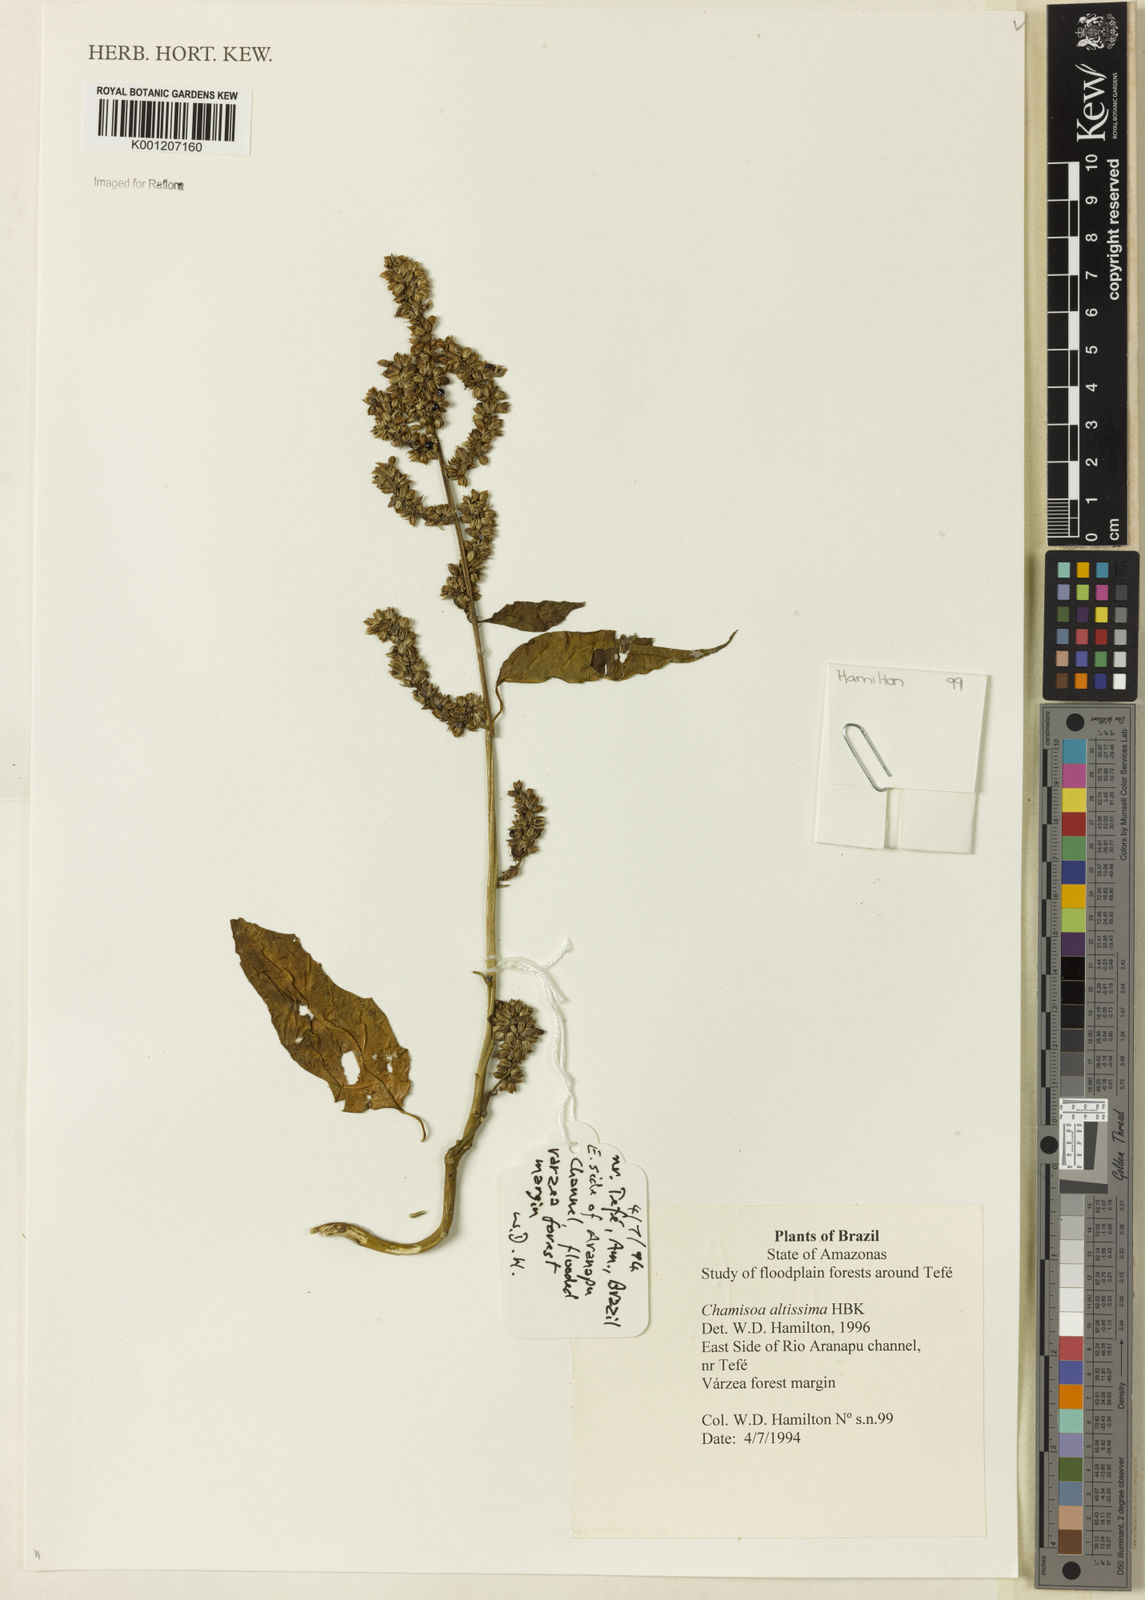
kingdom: Plantae
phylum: Tracheophyta
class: Magnoliopsida
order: Caryophyllales
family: Amaranthaceae
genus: Chamissoa
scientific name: Chamissoa altissima
